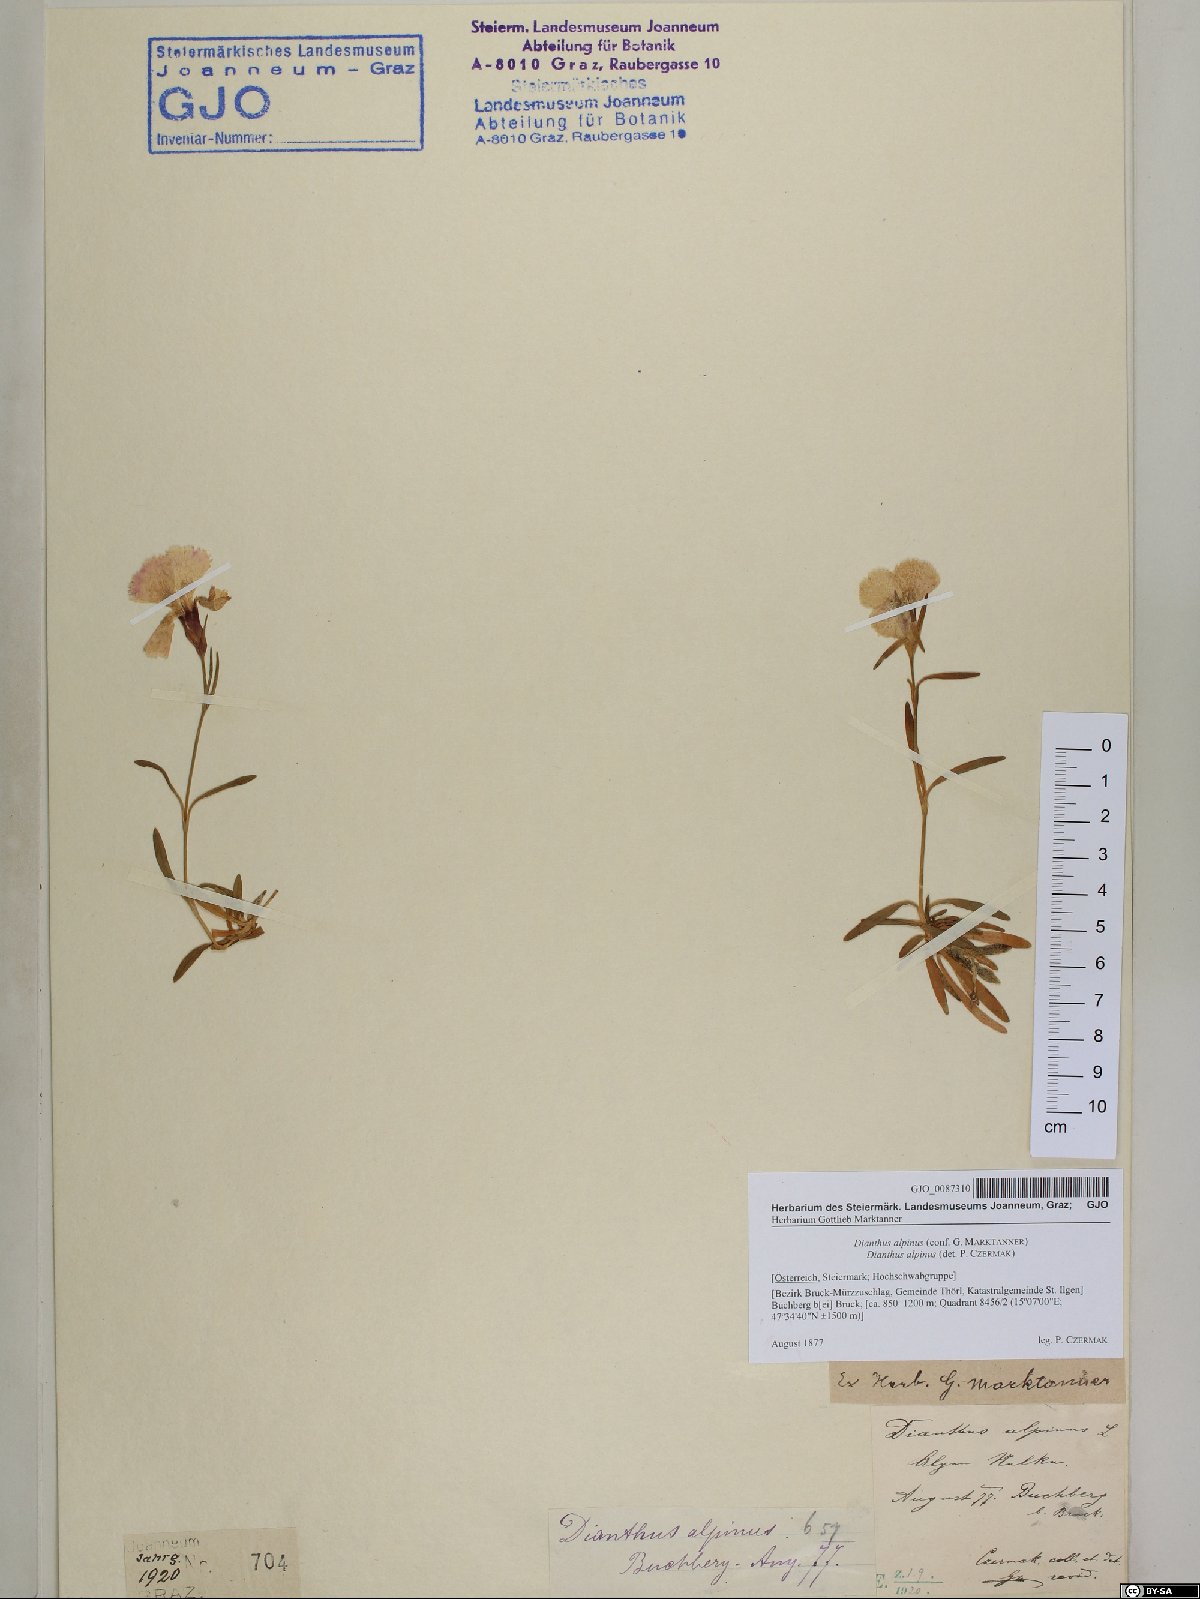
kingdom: Plantae
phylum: Tracheophyta
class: Magnoliopsida
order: Caryophyllales
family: Caryophyllaceae
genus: Dianthus
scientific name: Dianthus alpinus
